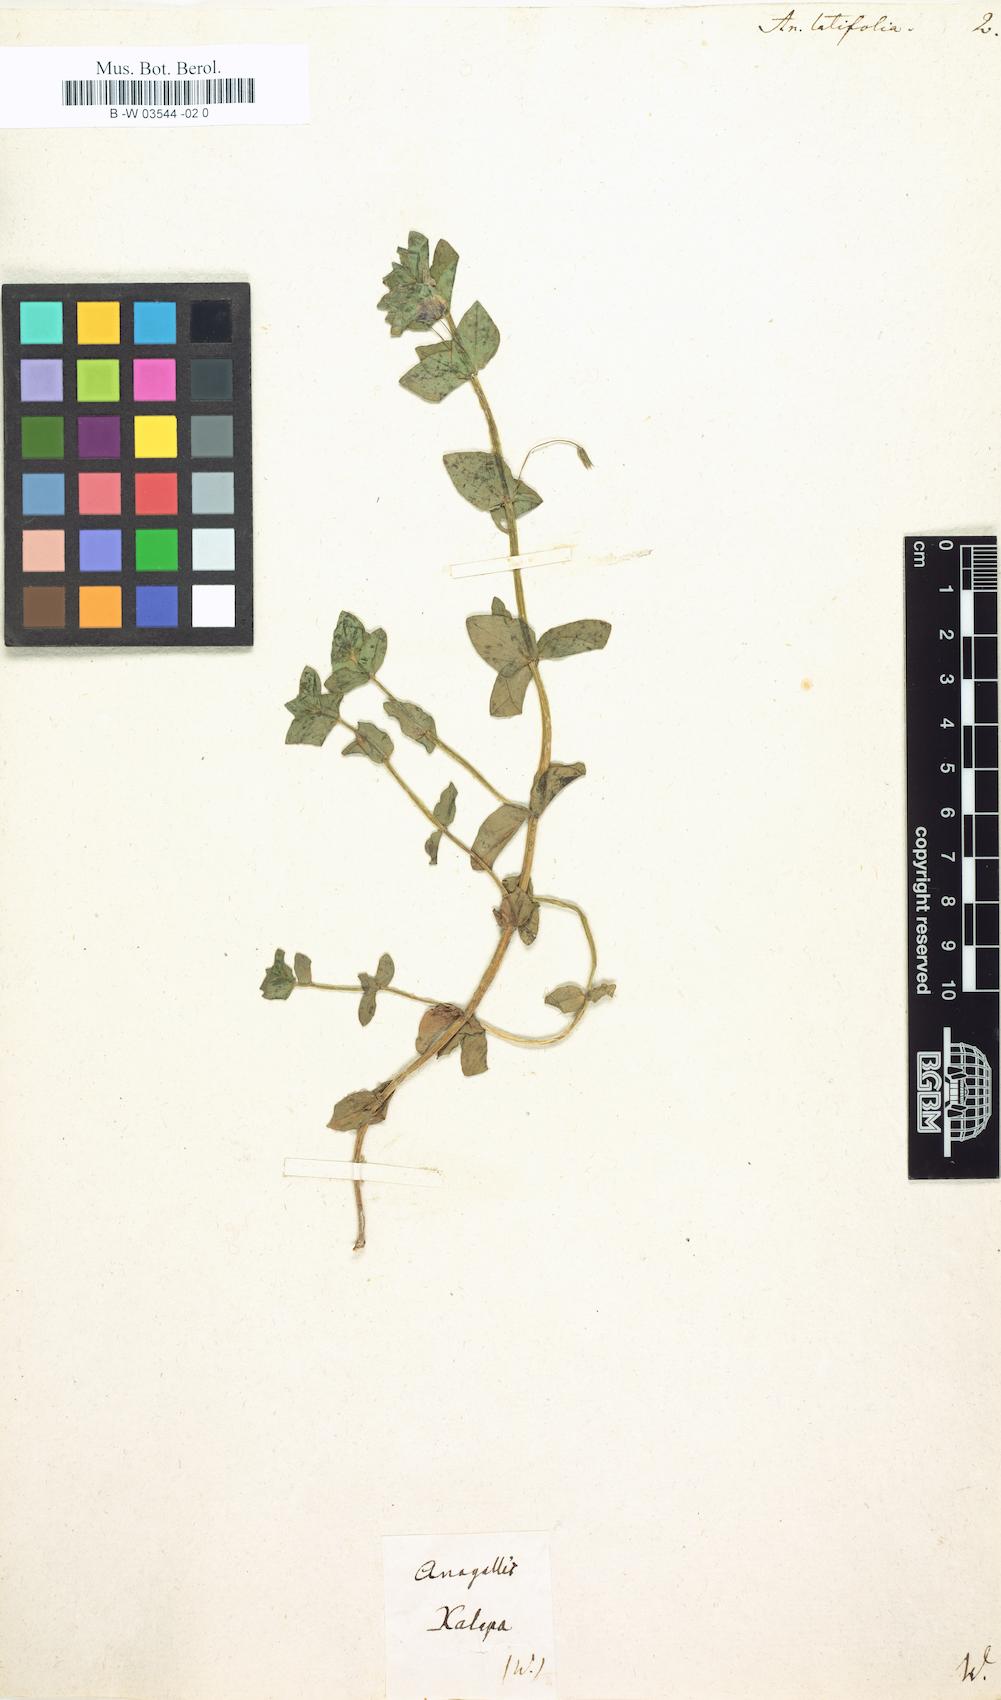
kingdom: Plantae
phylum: Tracheophyta
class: Magnoliopsida
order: Ericales
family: Primulaceae
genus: Lysimachia
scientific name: Lysimachia loeflingii
